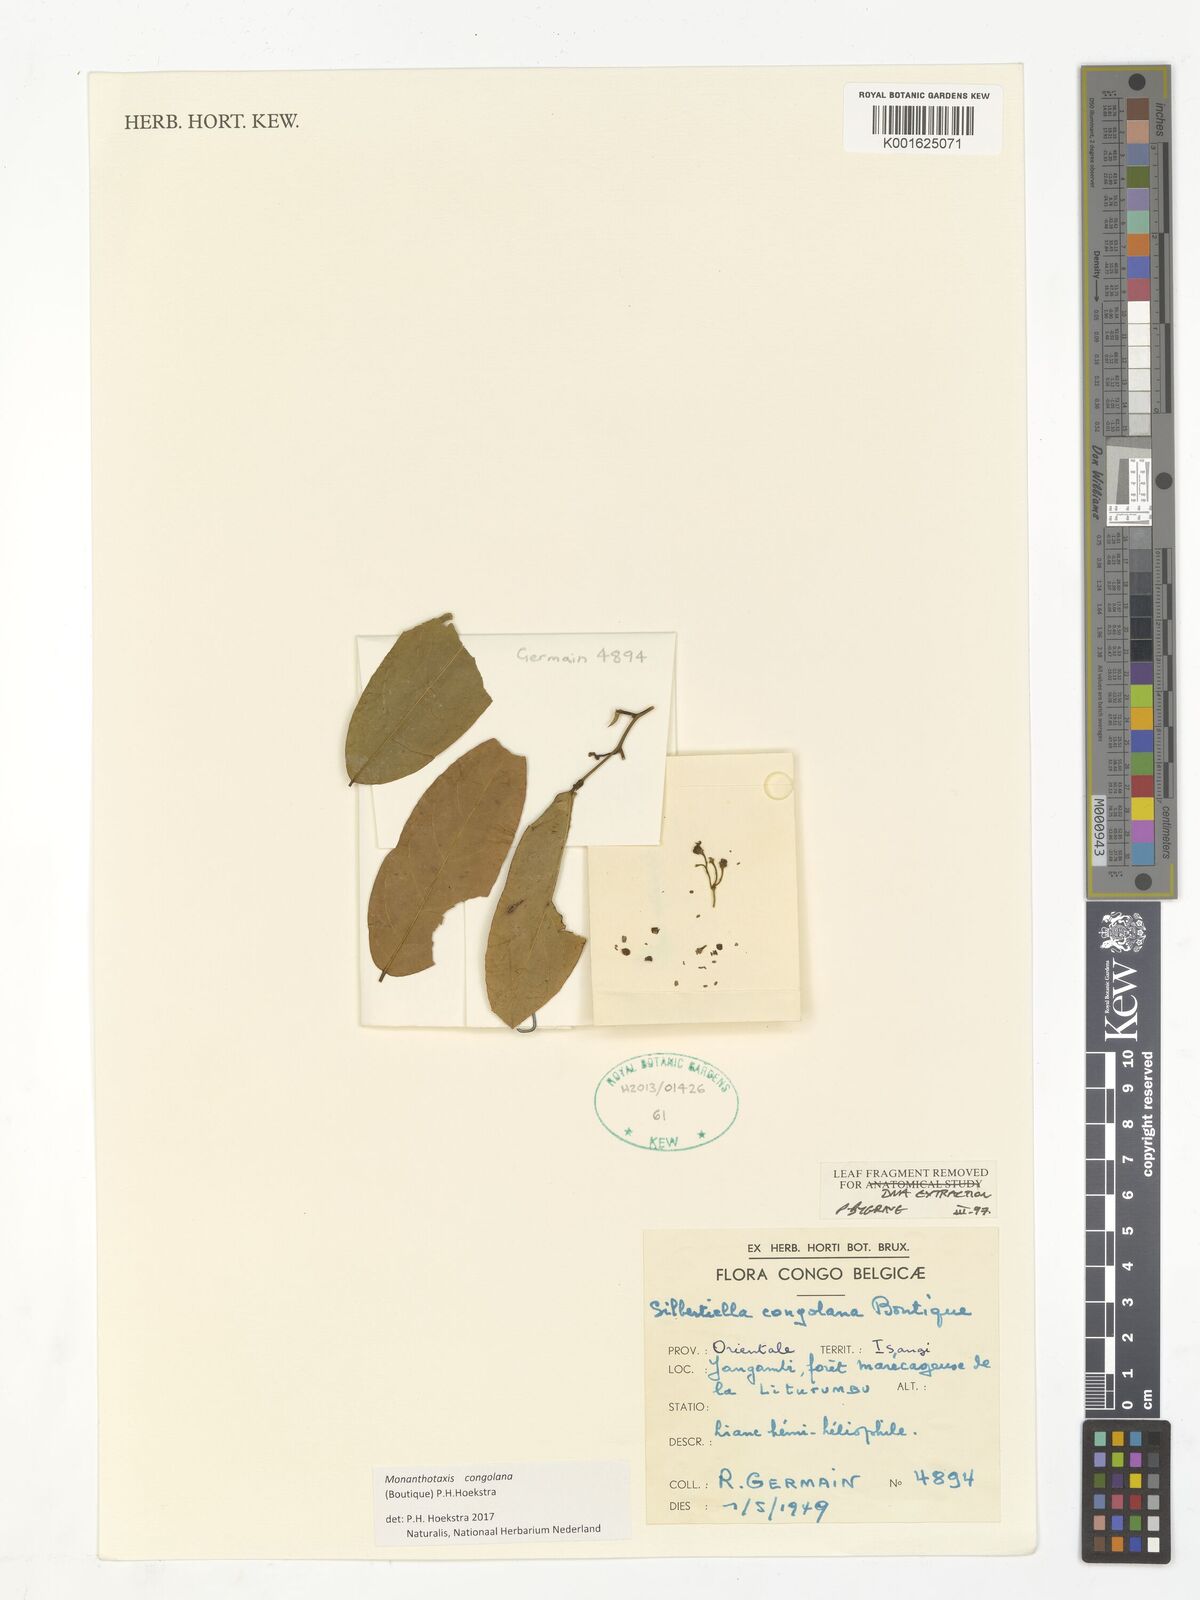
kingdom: Plantae
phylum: Tracheophyta
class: Magnoliopsida
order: Magnoliales
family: Annonaceae
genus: Gilbertiella
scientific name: Gilbertiella congolana
